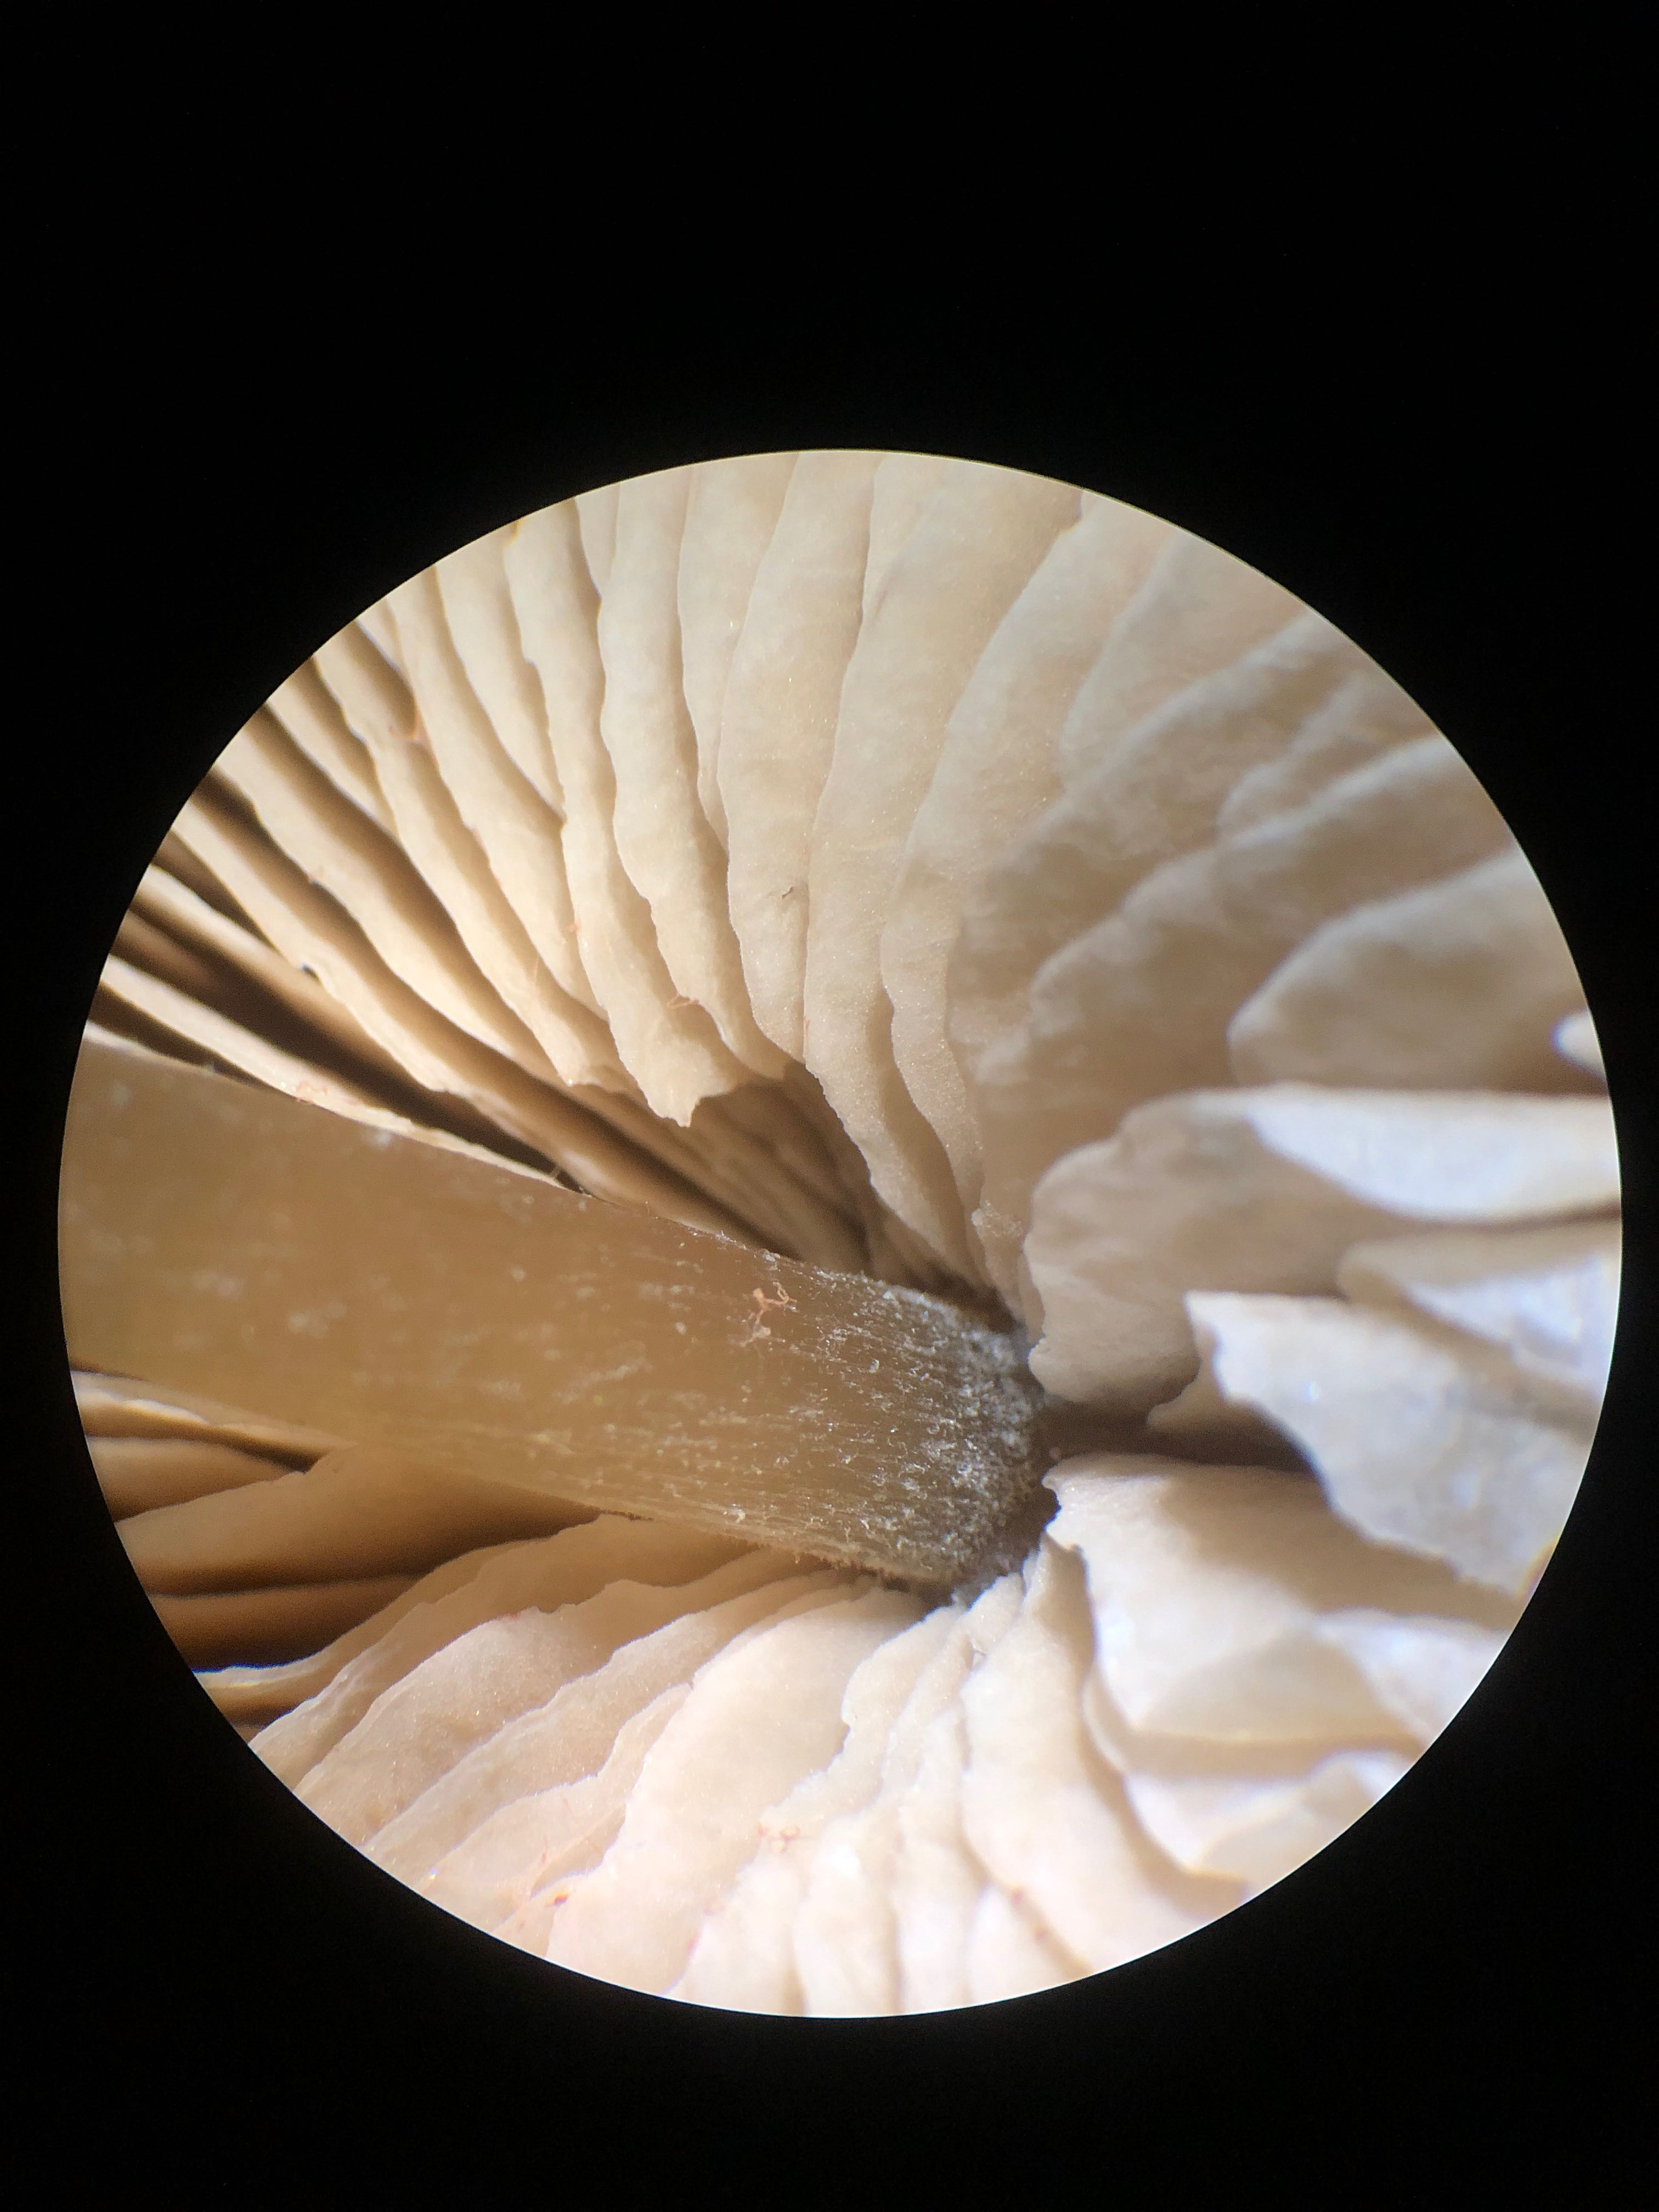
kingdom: Fungi
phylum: Basidiomycota
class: Agaricomycetes
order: Agaricales
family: Entolomataceae
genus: Entoloma
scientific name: Entoloma cetratum
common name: voks-rødblad
